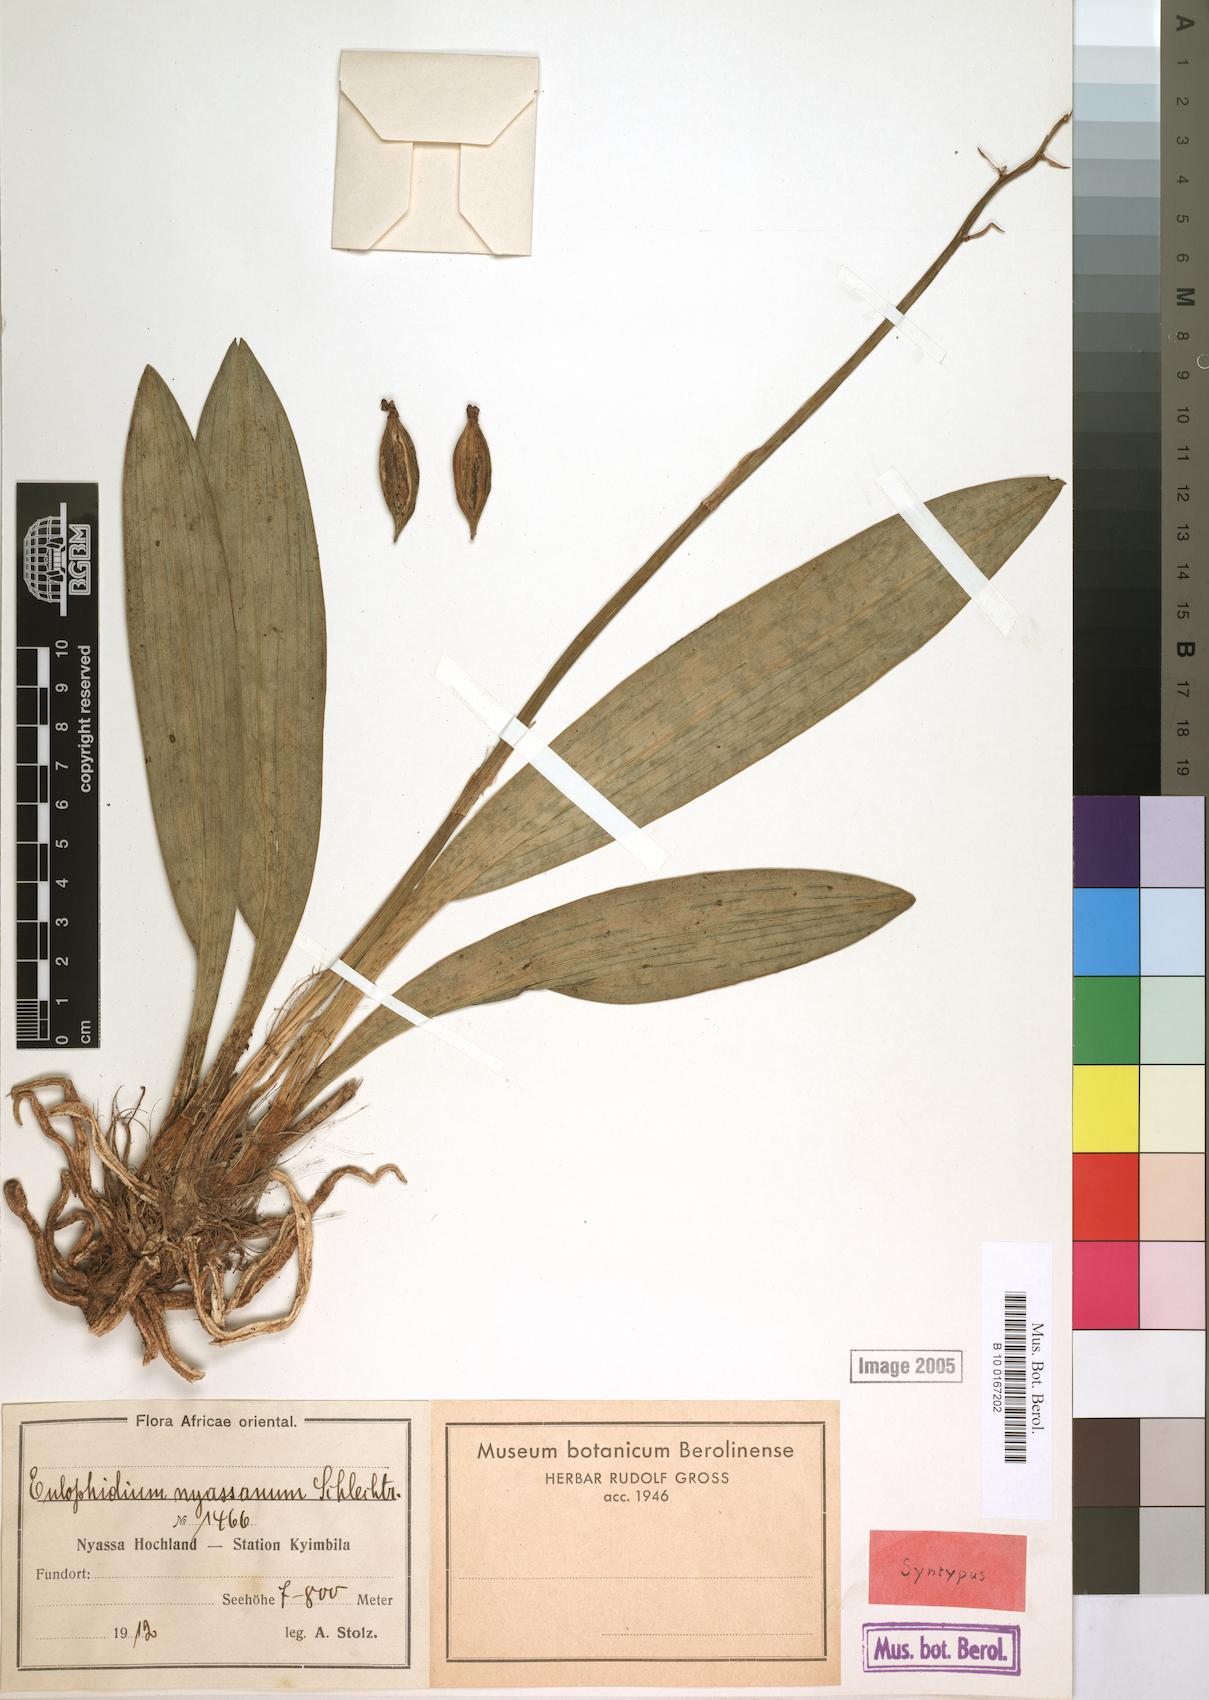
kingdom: Plantae
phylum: Tracheophyta
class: Liliopsida
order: Asparagales
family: Orchidaceae
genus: Eulophia
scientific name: Eulophia maculata
